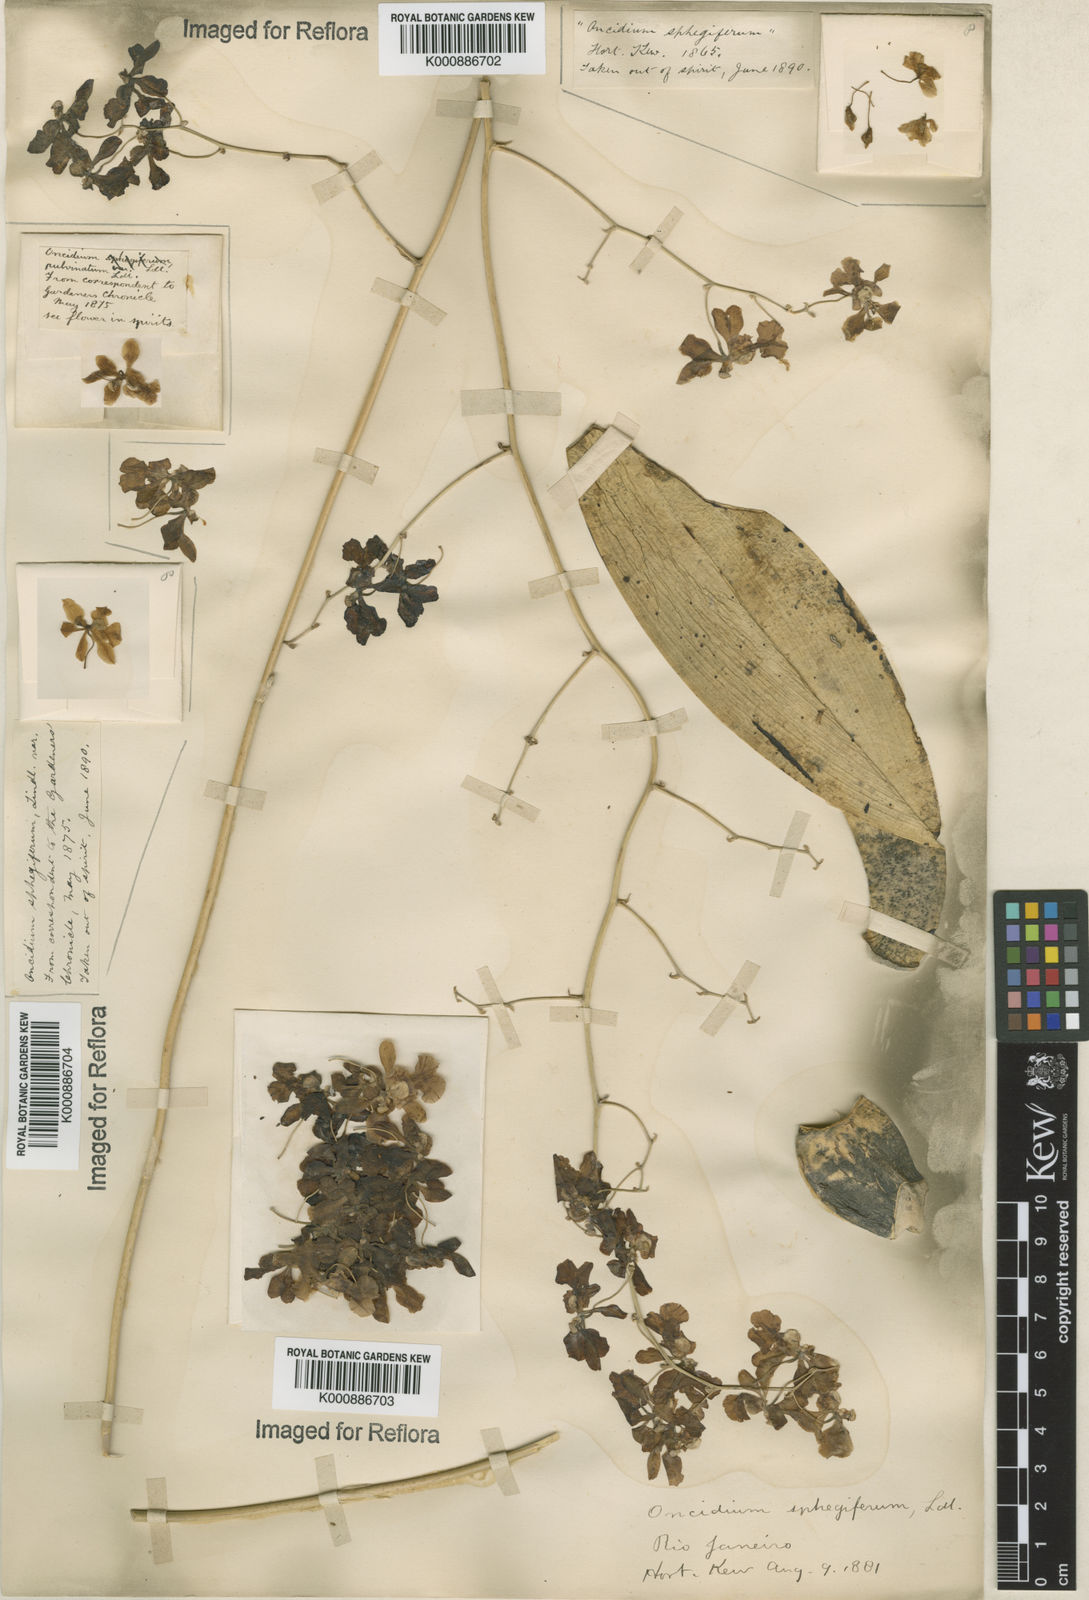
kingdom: Plantae
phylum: Tracheophyta
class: Liliopsida
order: Asparagales
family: Orchidaceae
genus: Grandiphyllum
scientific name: Grandiphyllum divaricatum
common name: Mule-ear orchid
